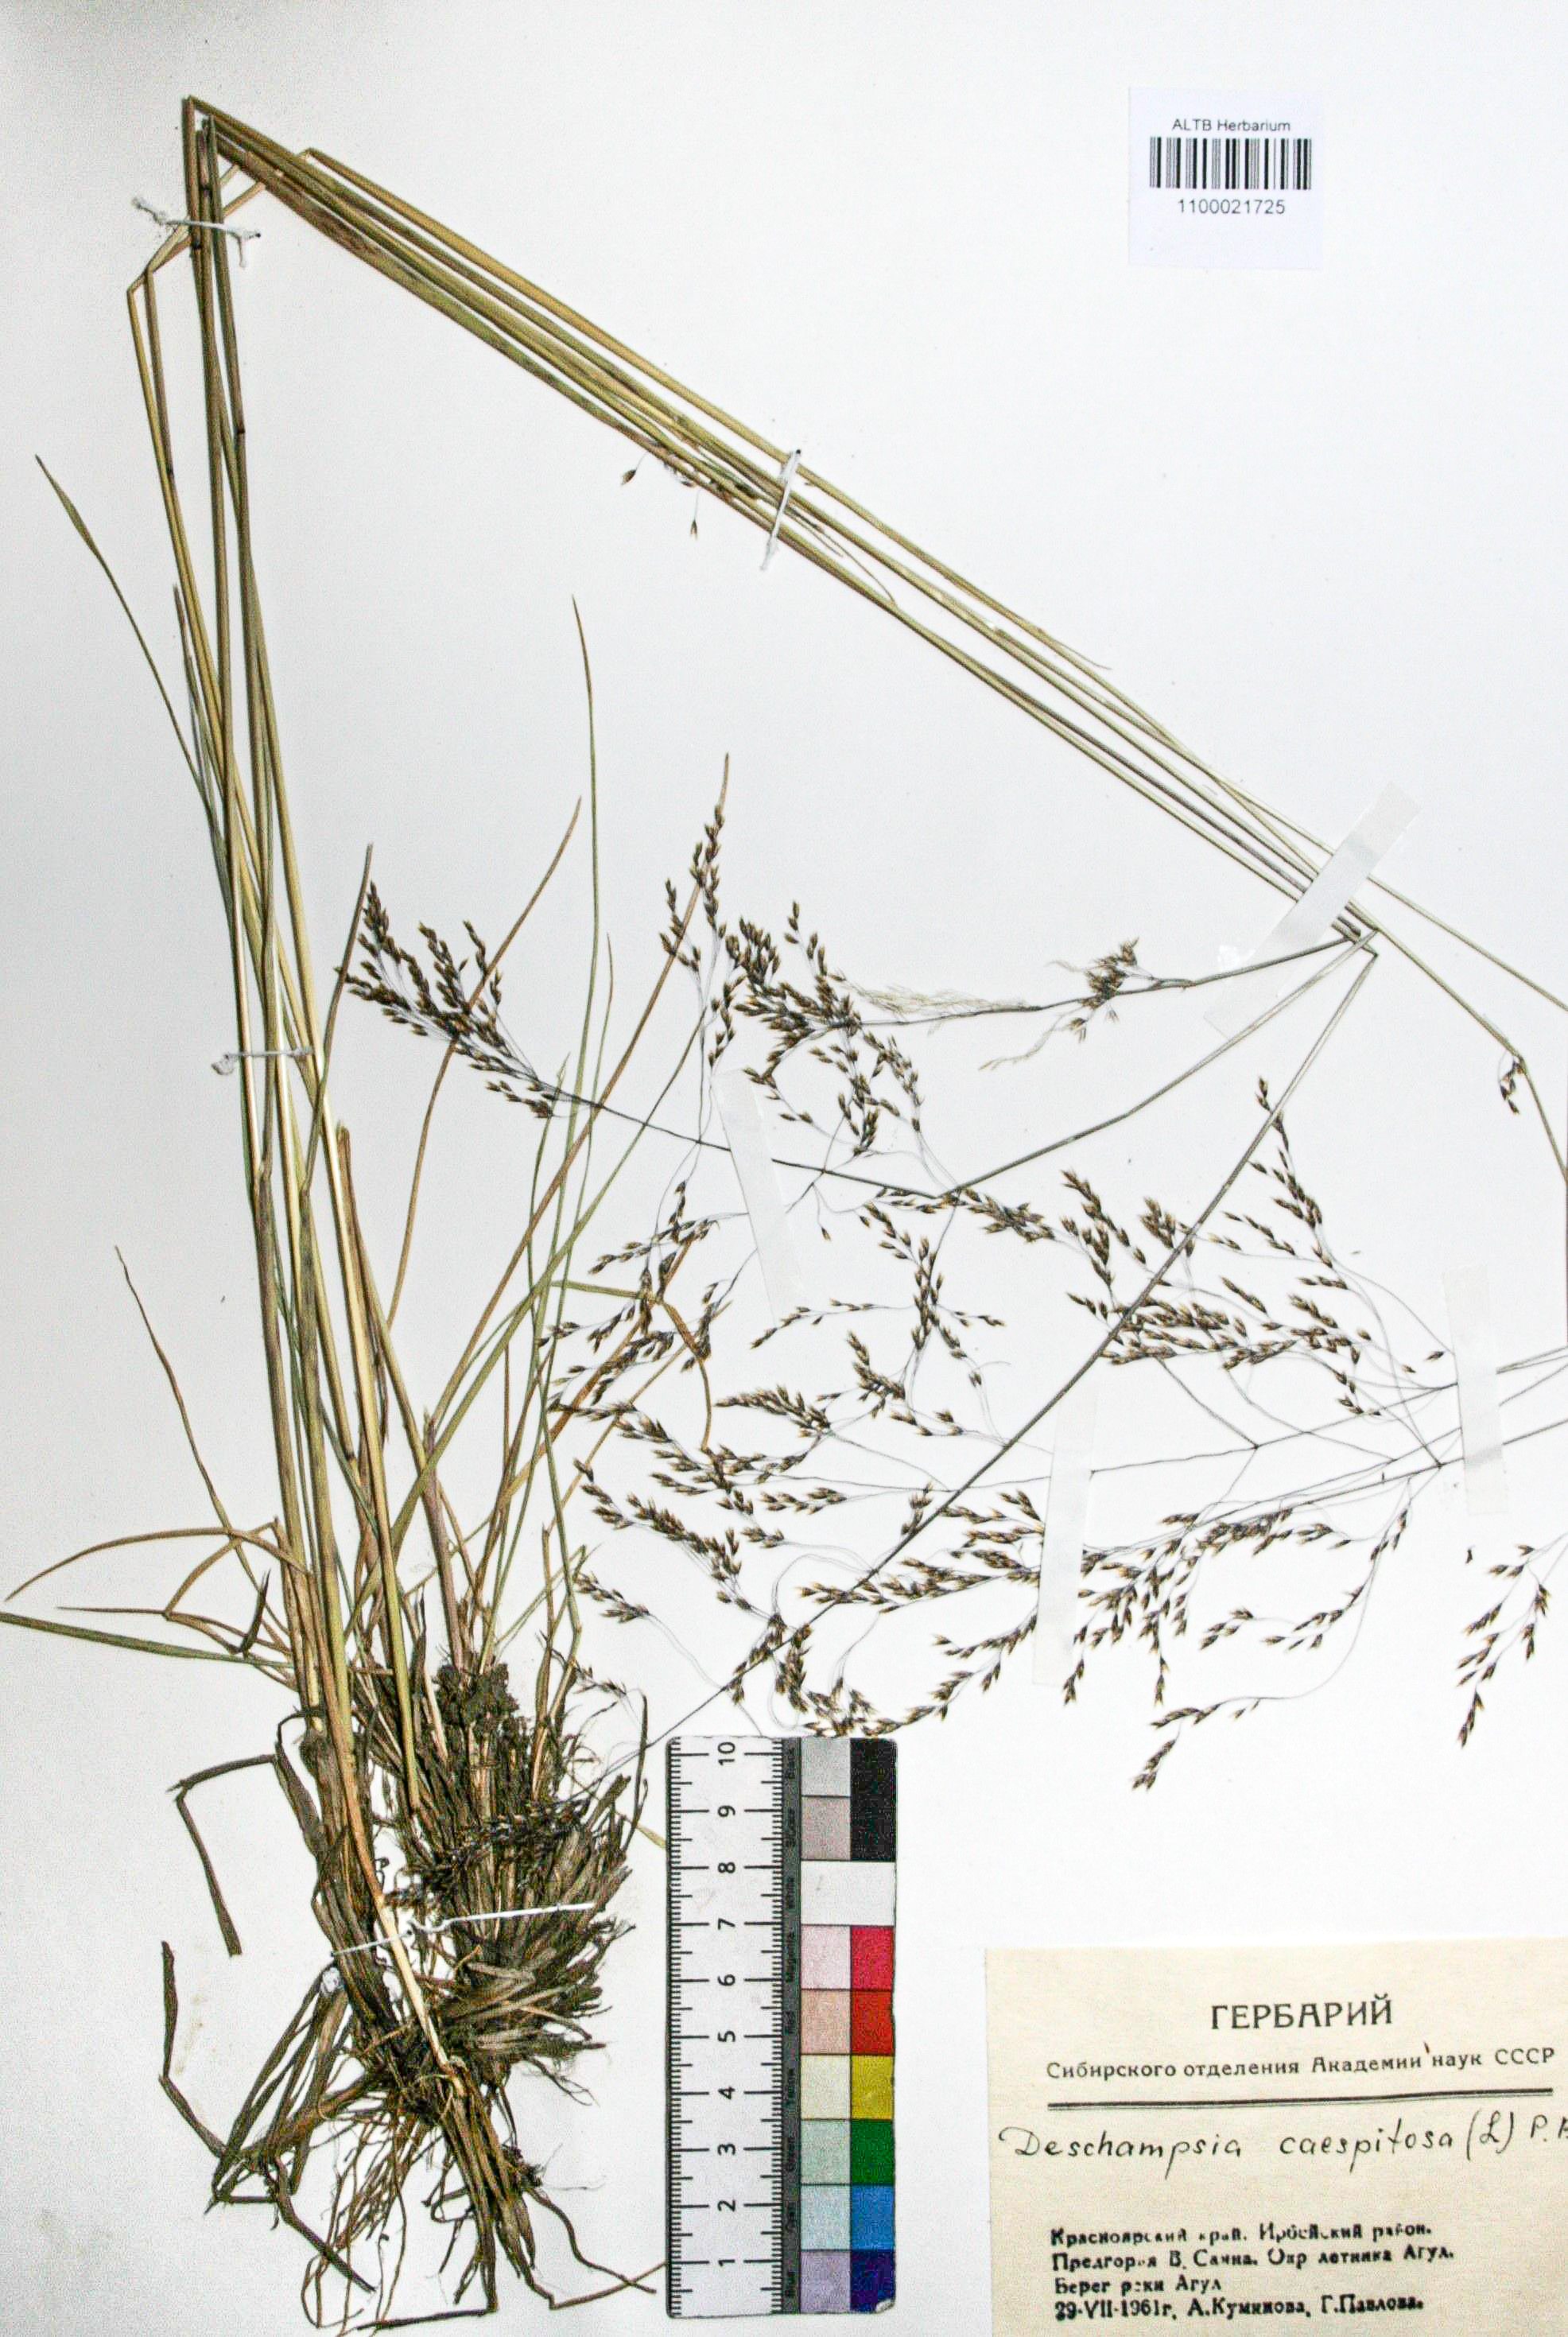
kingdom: Plantae
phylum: Tracheophyta
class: Liliopsida
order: Poales
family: Poaceae
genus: Deschampsia
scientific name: Deschampsia cespitosa
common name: Tufted hair-grass
